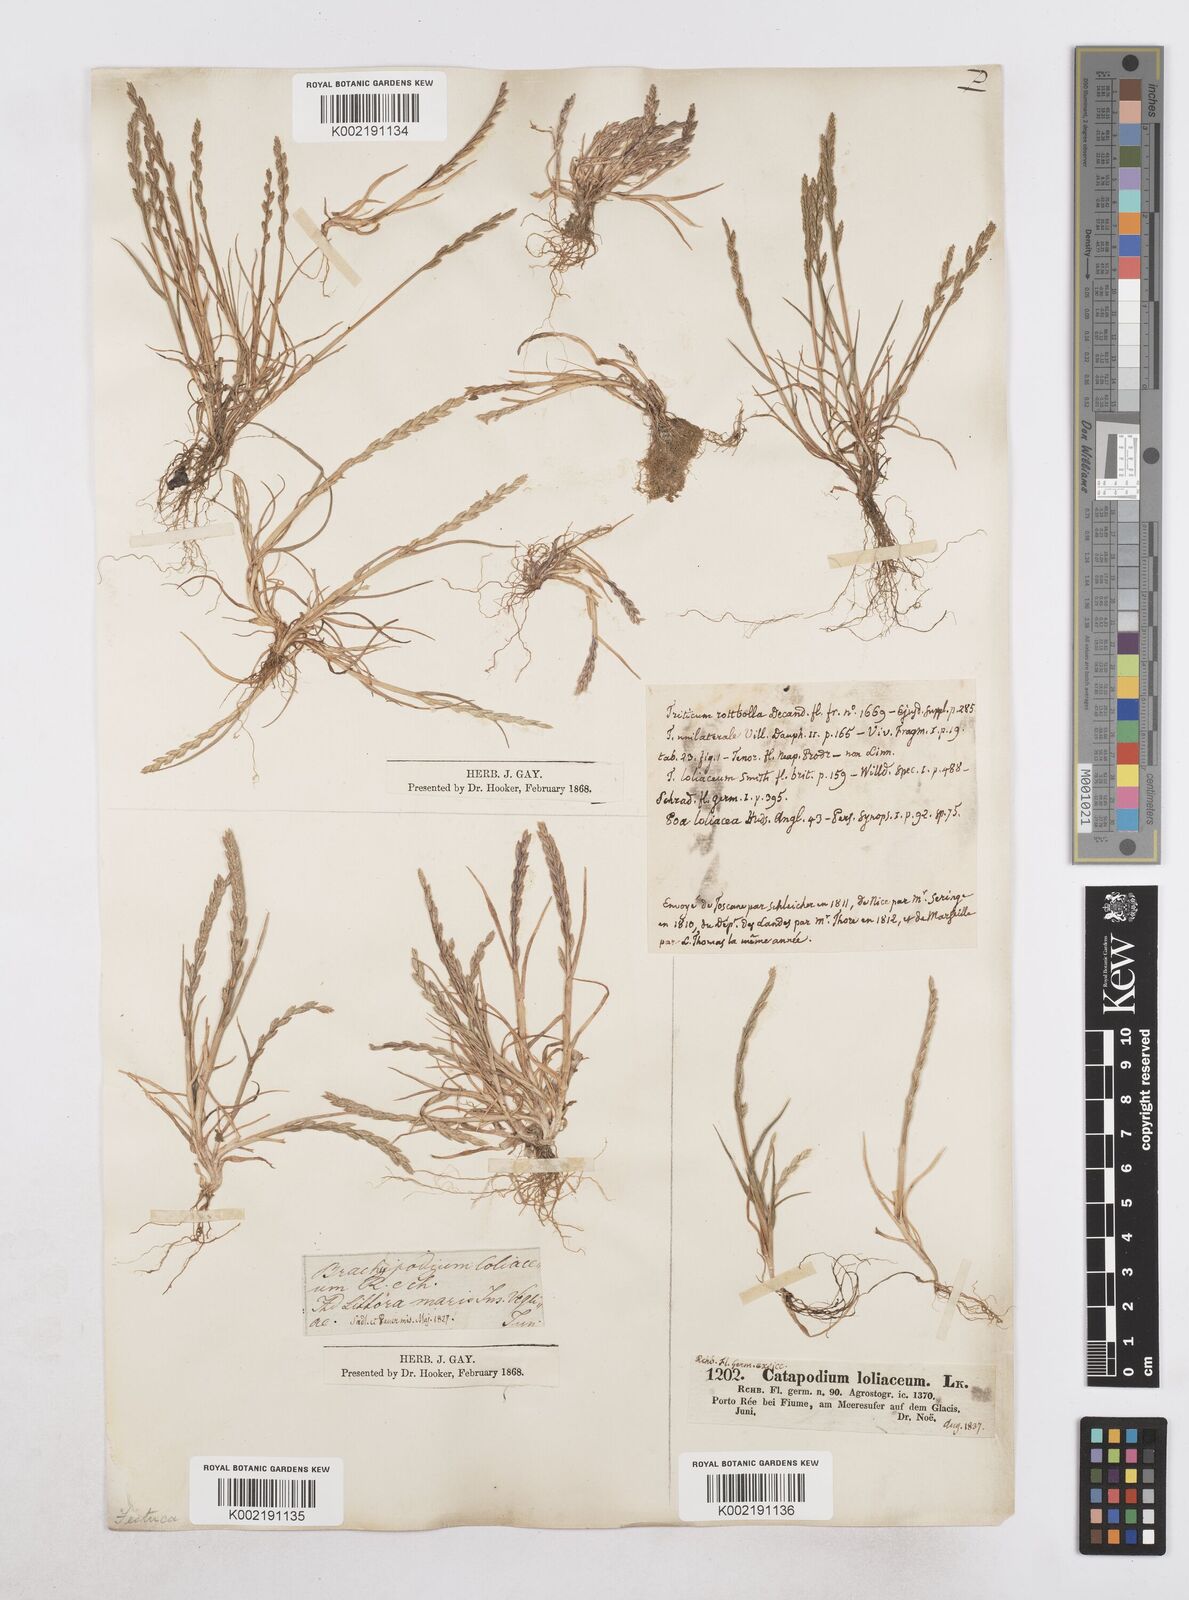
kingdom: Plantae
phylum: Tracheophyta
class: Liliopsida
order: Poales
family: Poaceae
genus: Catapodium
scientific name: Catapodium marinum
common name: Sea fern-grass
